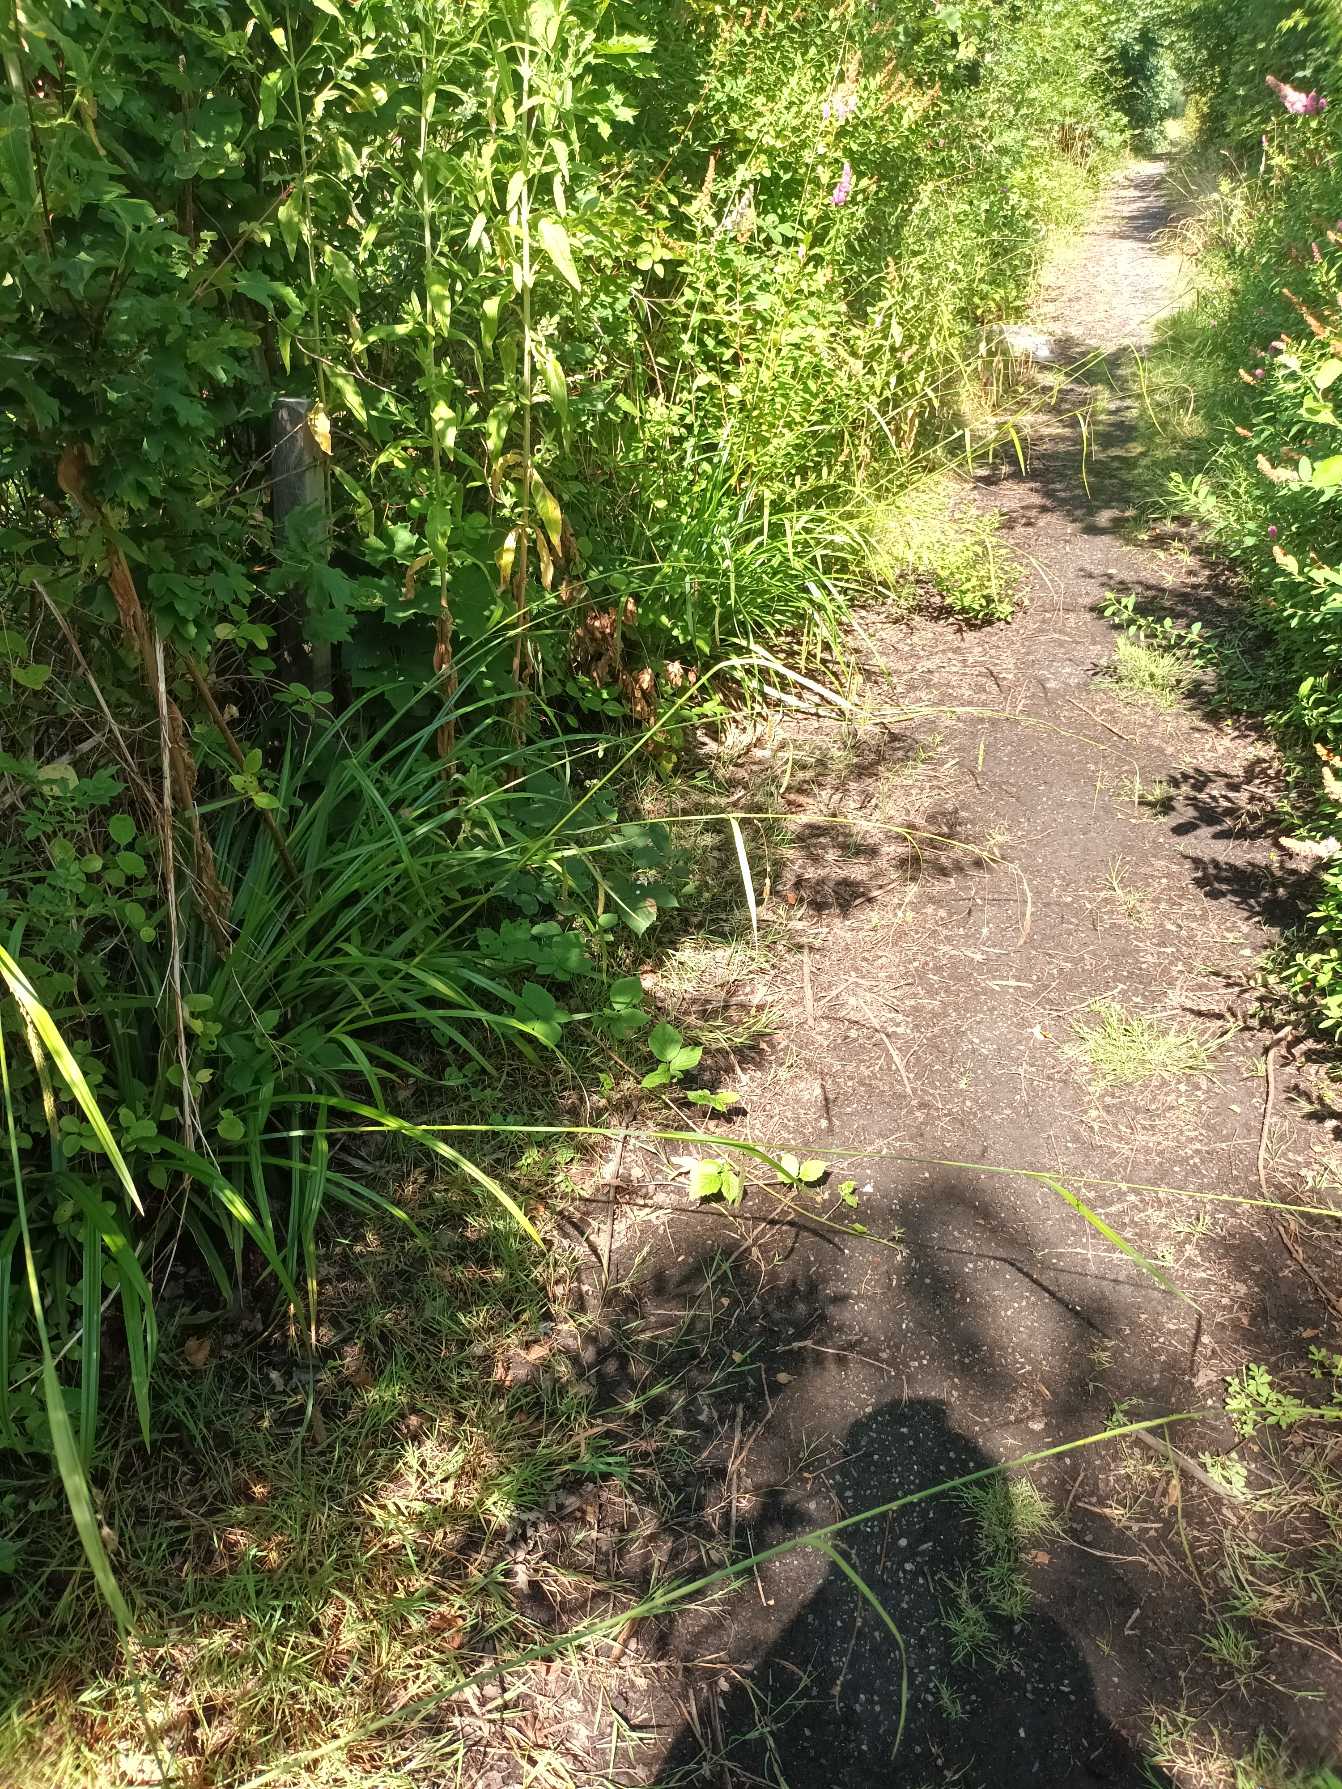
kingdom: Plantae
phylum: Tracheophyta
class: Liliopsida
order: Poales
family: Cyperaceae
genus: Carex
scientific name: Carex pendula
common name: Kæmpe-star
